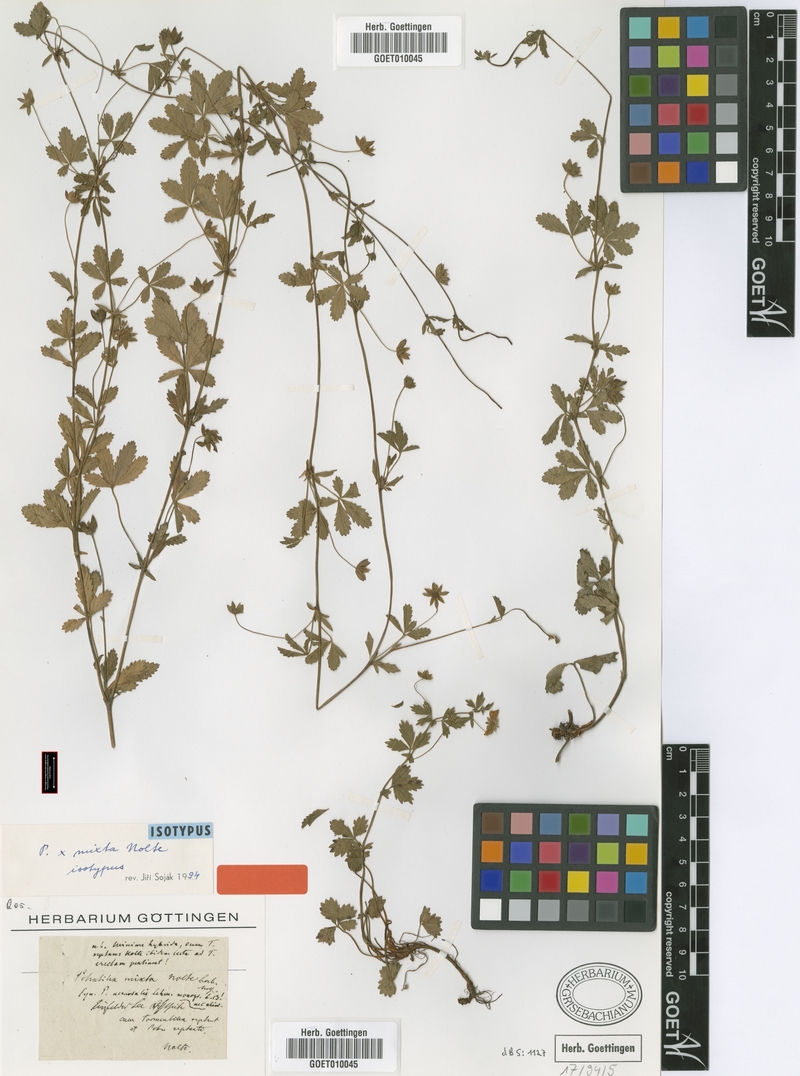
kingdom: Plantae
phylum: Tracheophyta
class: Magnoliopsida
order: Rosales
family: Rosaceae
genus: Potentilla
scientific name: Potentilla reptans
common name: Creeping cinquefoil
